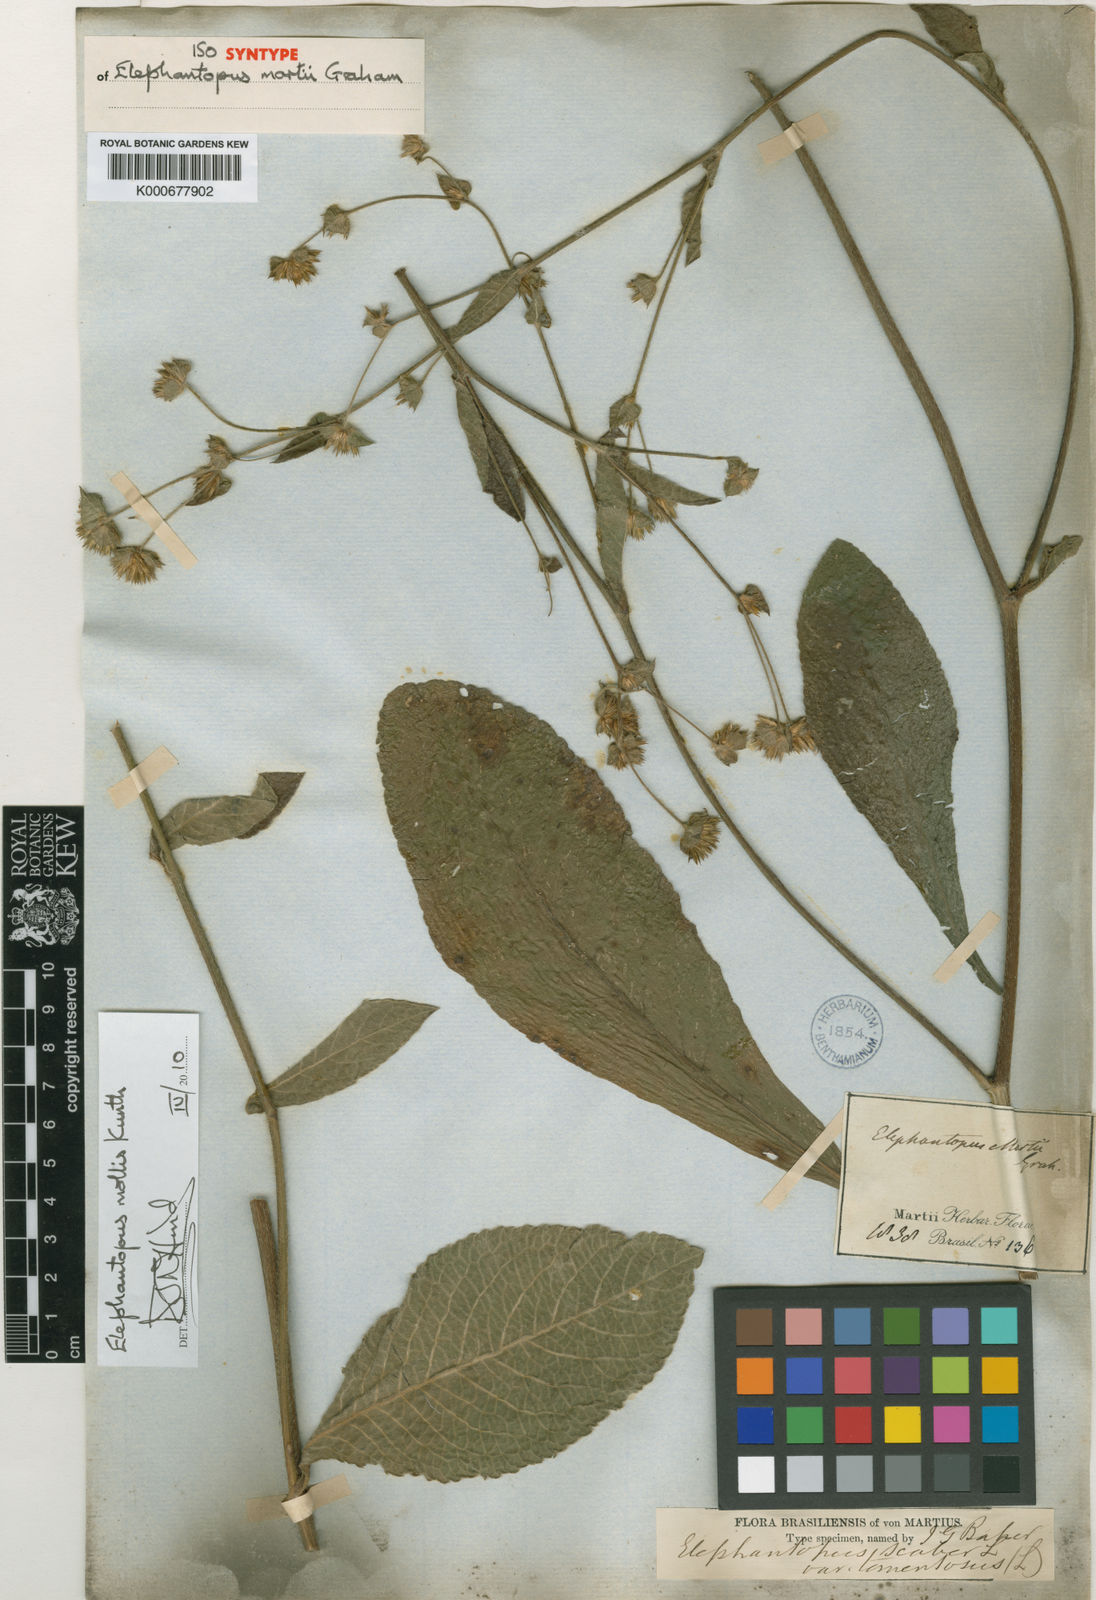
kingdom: Plantae
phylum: Tracheophyta
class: Magnoliopsida
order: Asterales
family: Asteraceae
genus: Elephantopus
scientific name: Elephantopus mollis
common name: Soft elephantsfoot
